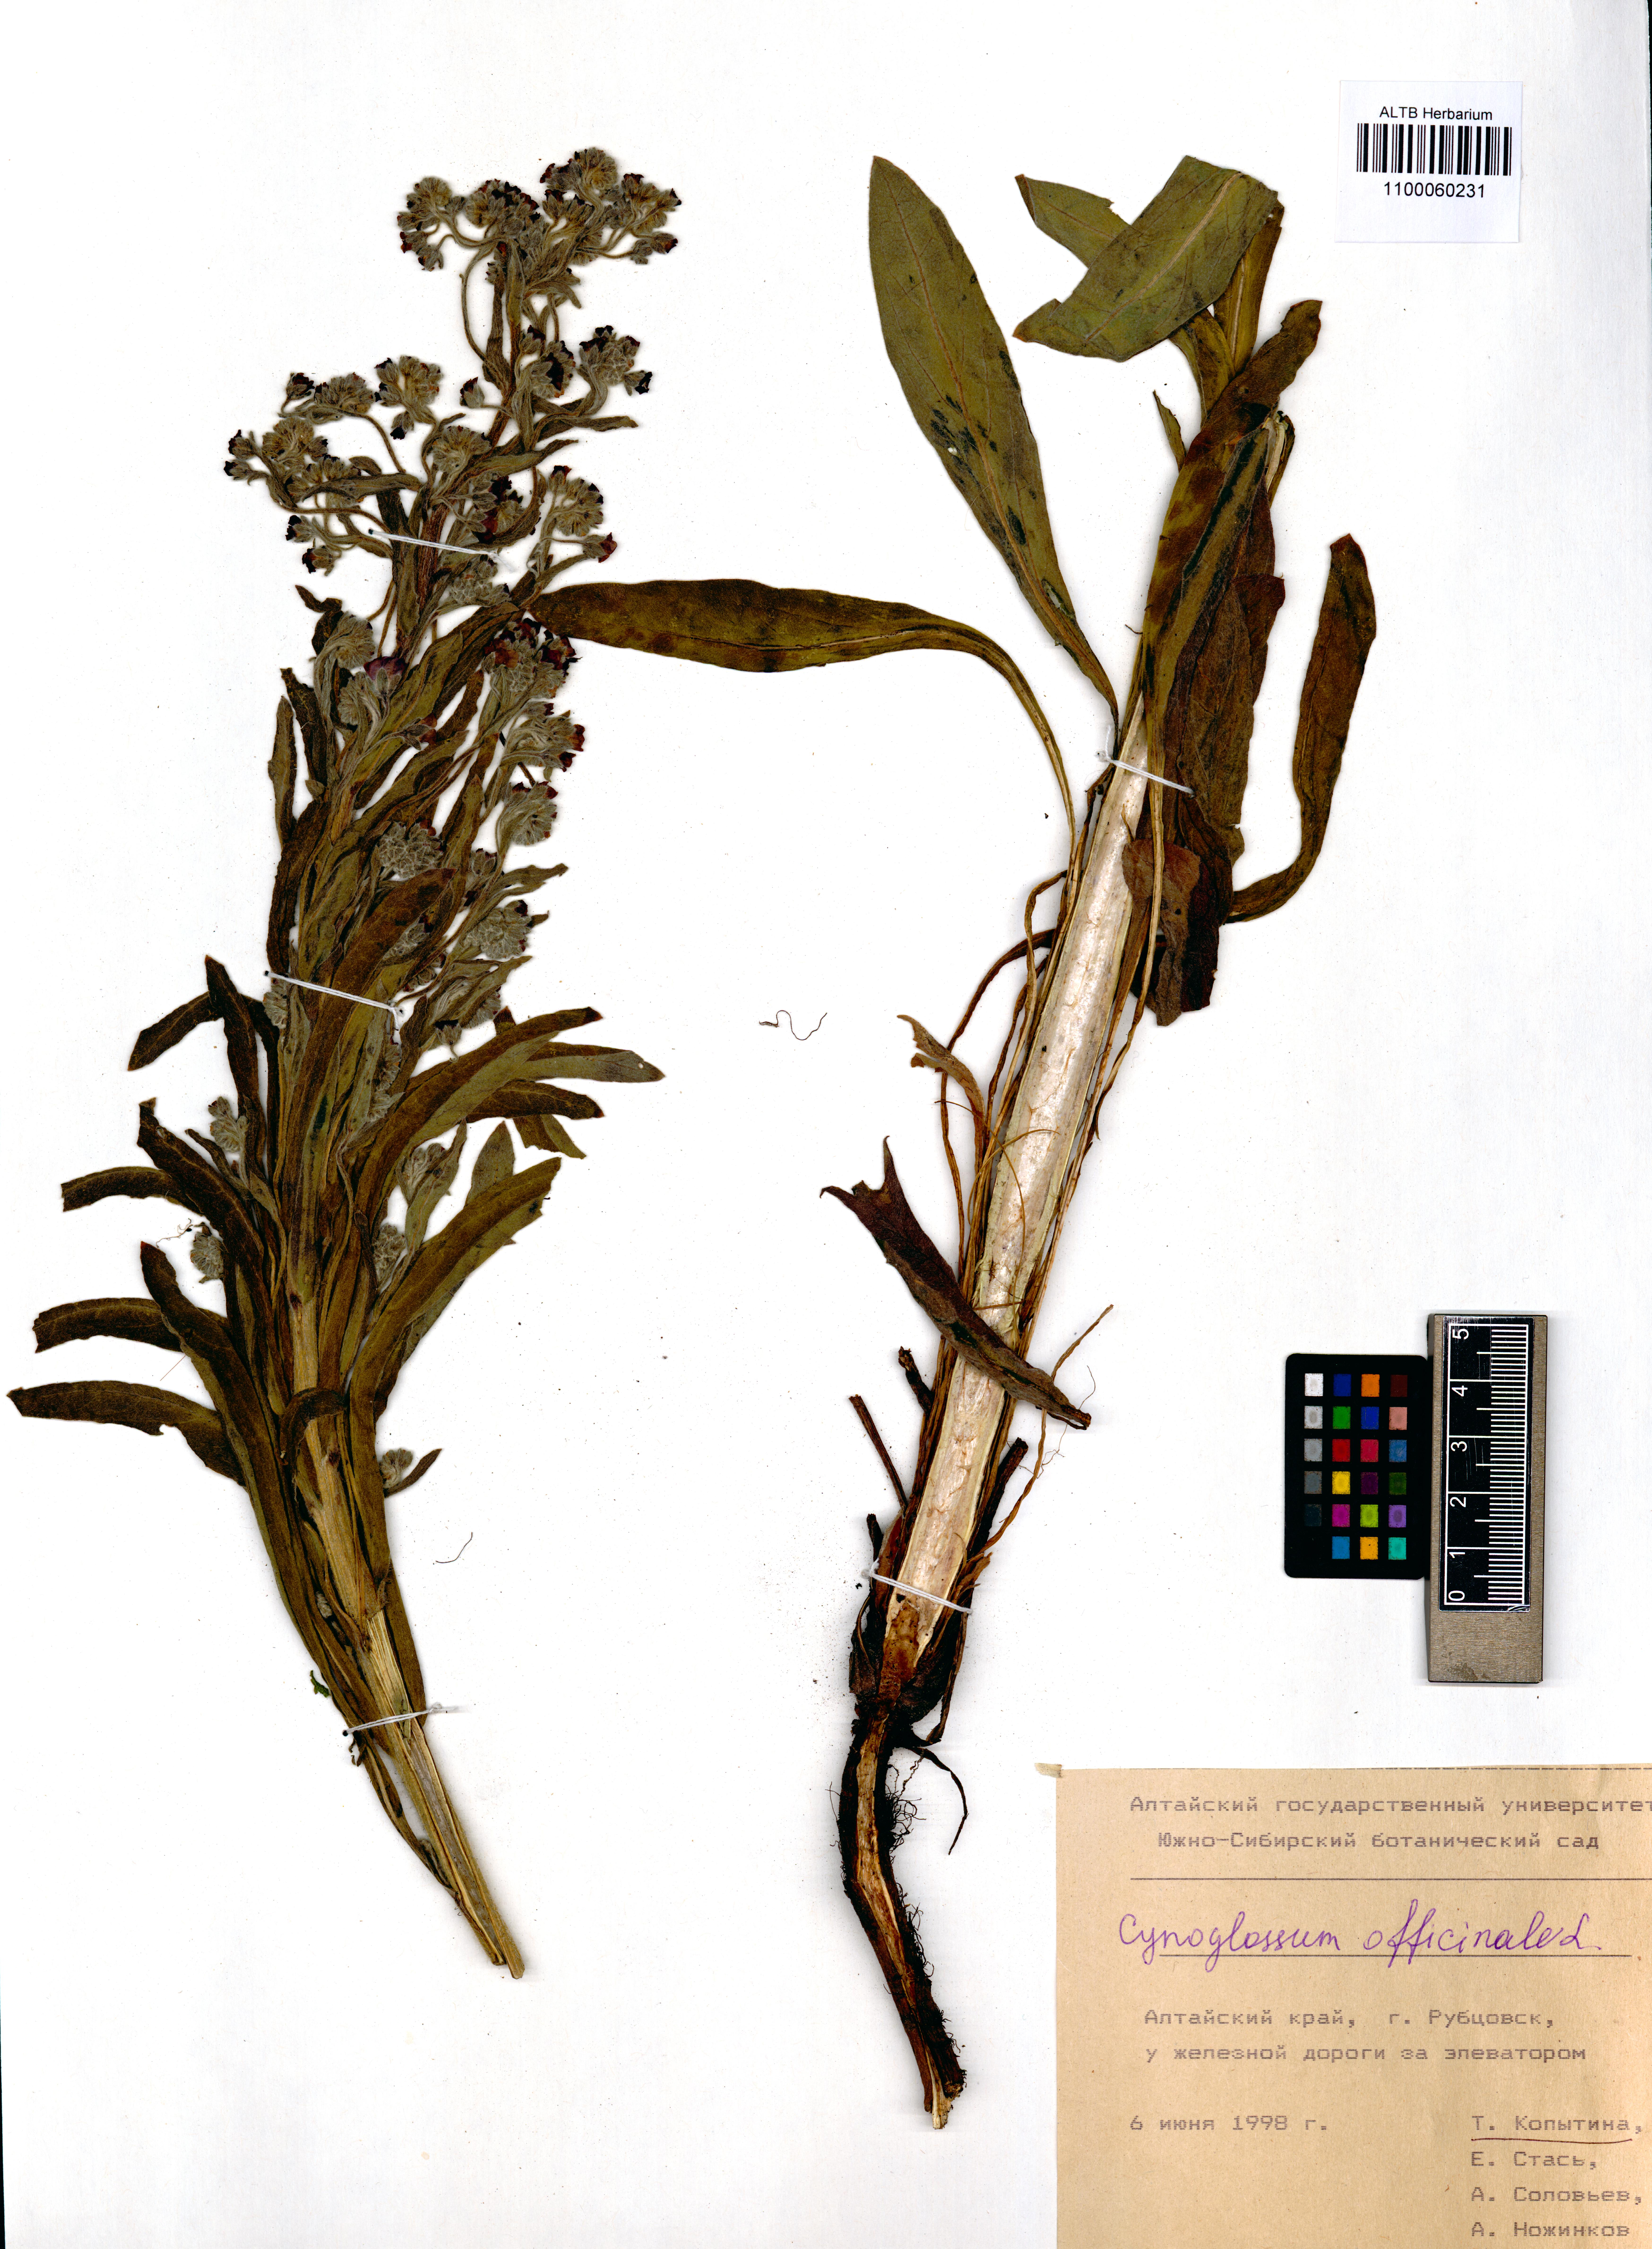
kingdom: Plantae
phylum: Tracheophyta
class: Magnoliopsida
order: Boraginales
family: Boraginaceae
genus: Cynoglossum
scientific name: Cynoglossum officinale
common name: Hound's-tongue
